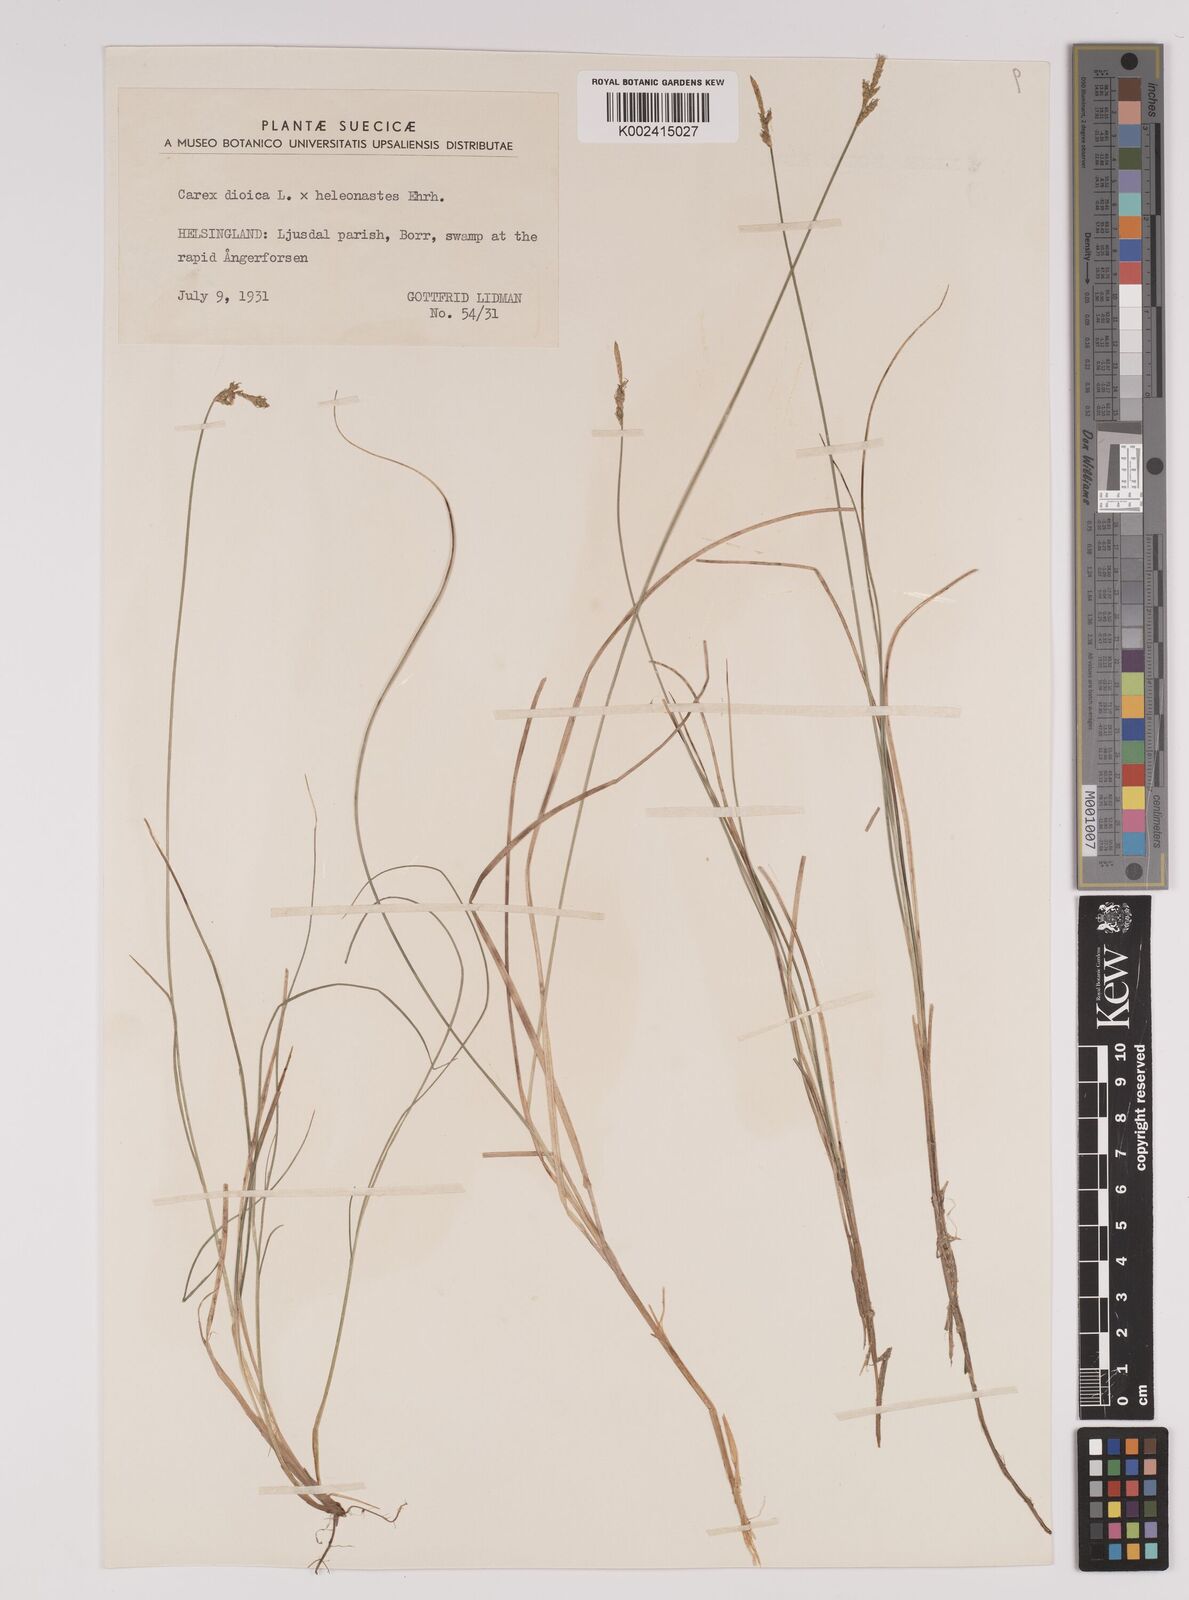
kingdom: Plantae
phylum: Tracheophyta
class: Liliopsida
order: Poales
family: Cyperaceae
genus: Carex
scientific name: Carex dioica
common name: Dioecious sedge
